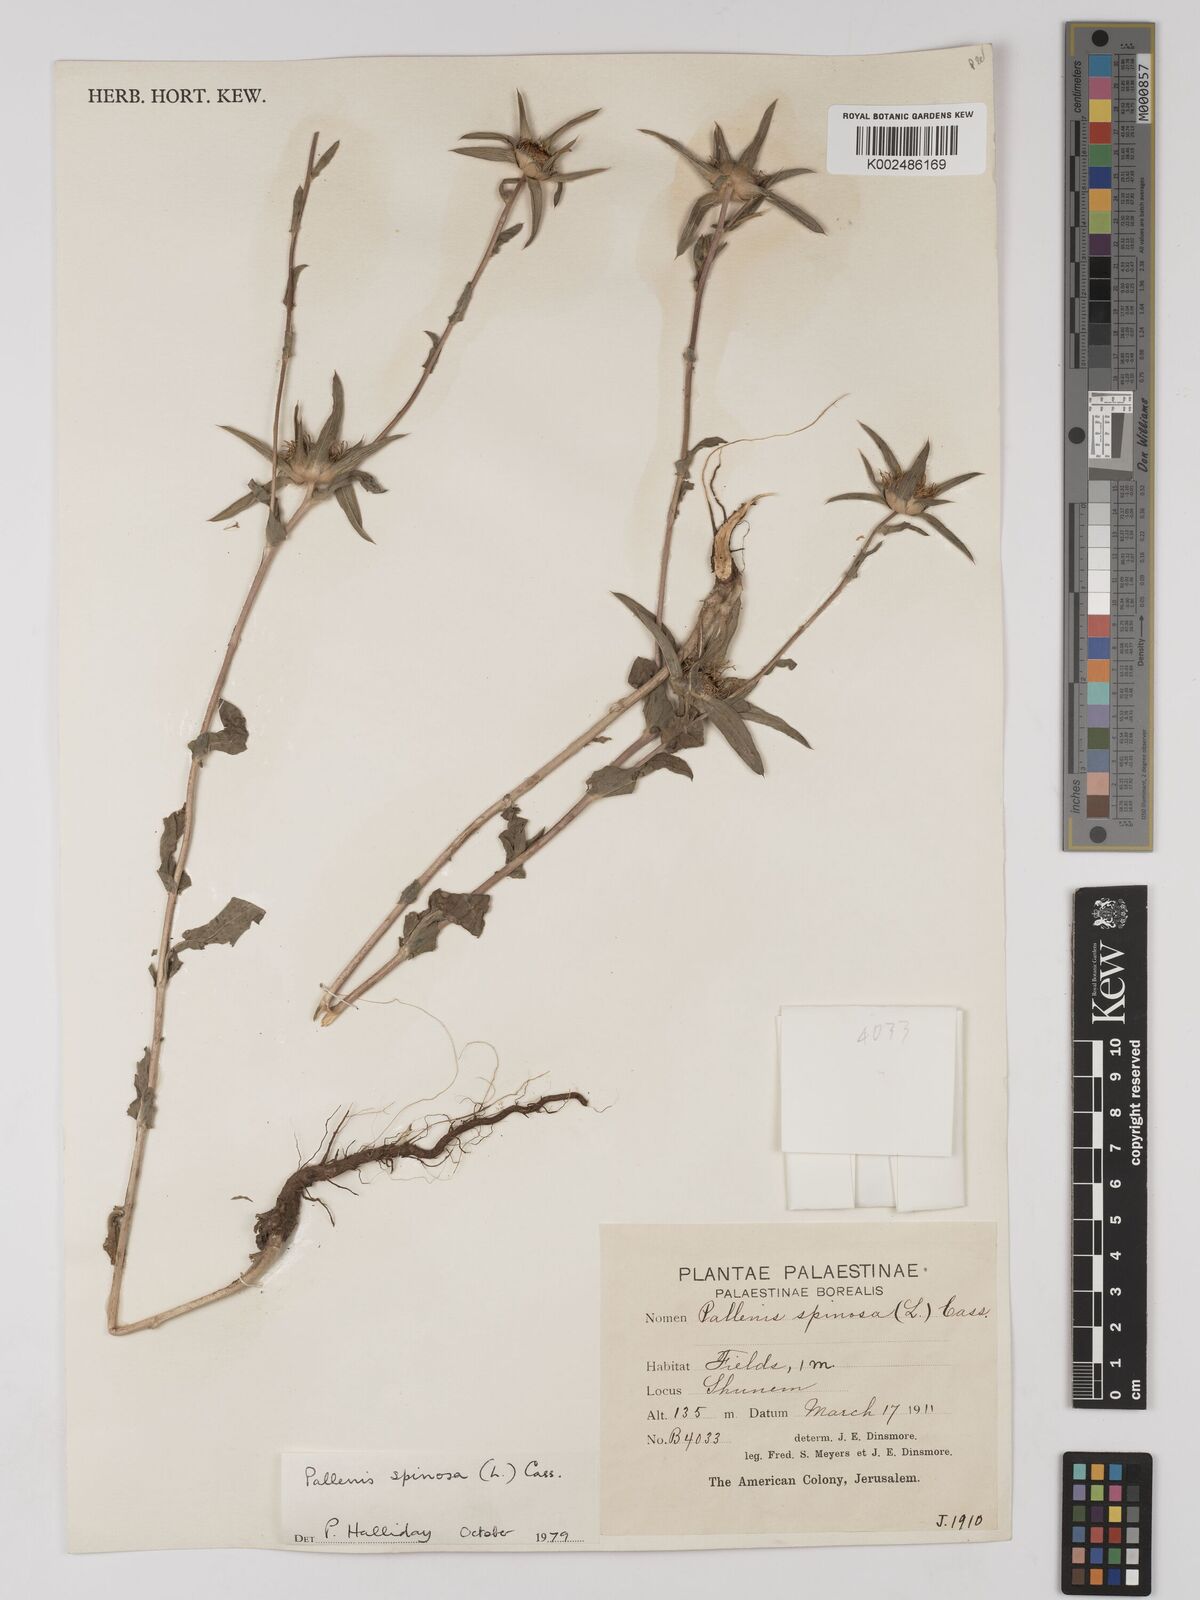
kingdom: Plantae
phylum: Tracheophyta
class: Magnoliopsida
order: Asterales
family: Asteraceae
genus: Pallenis
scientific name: Pallenis spinosa
